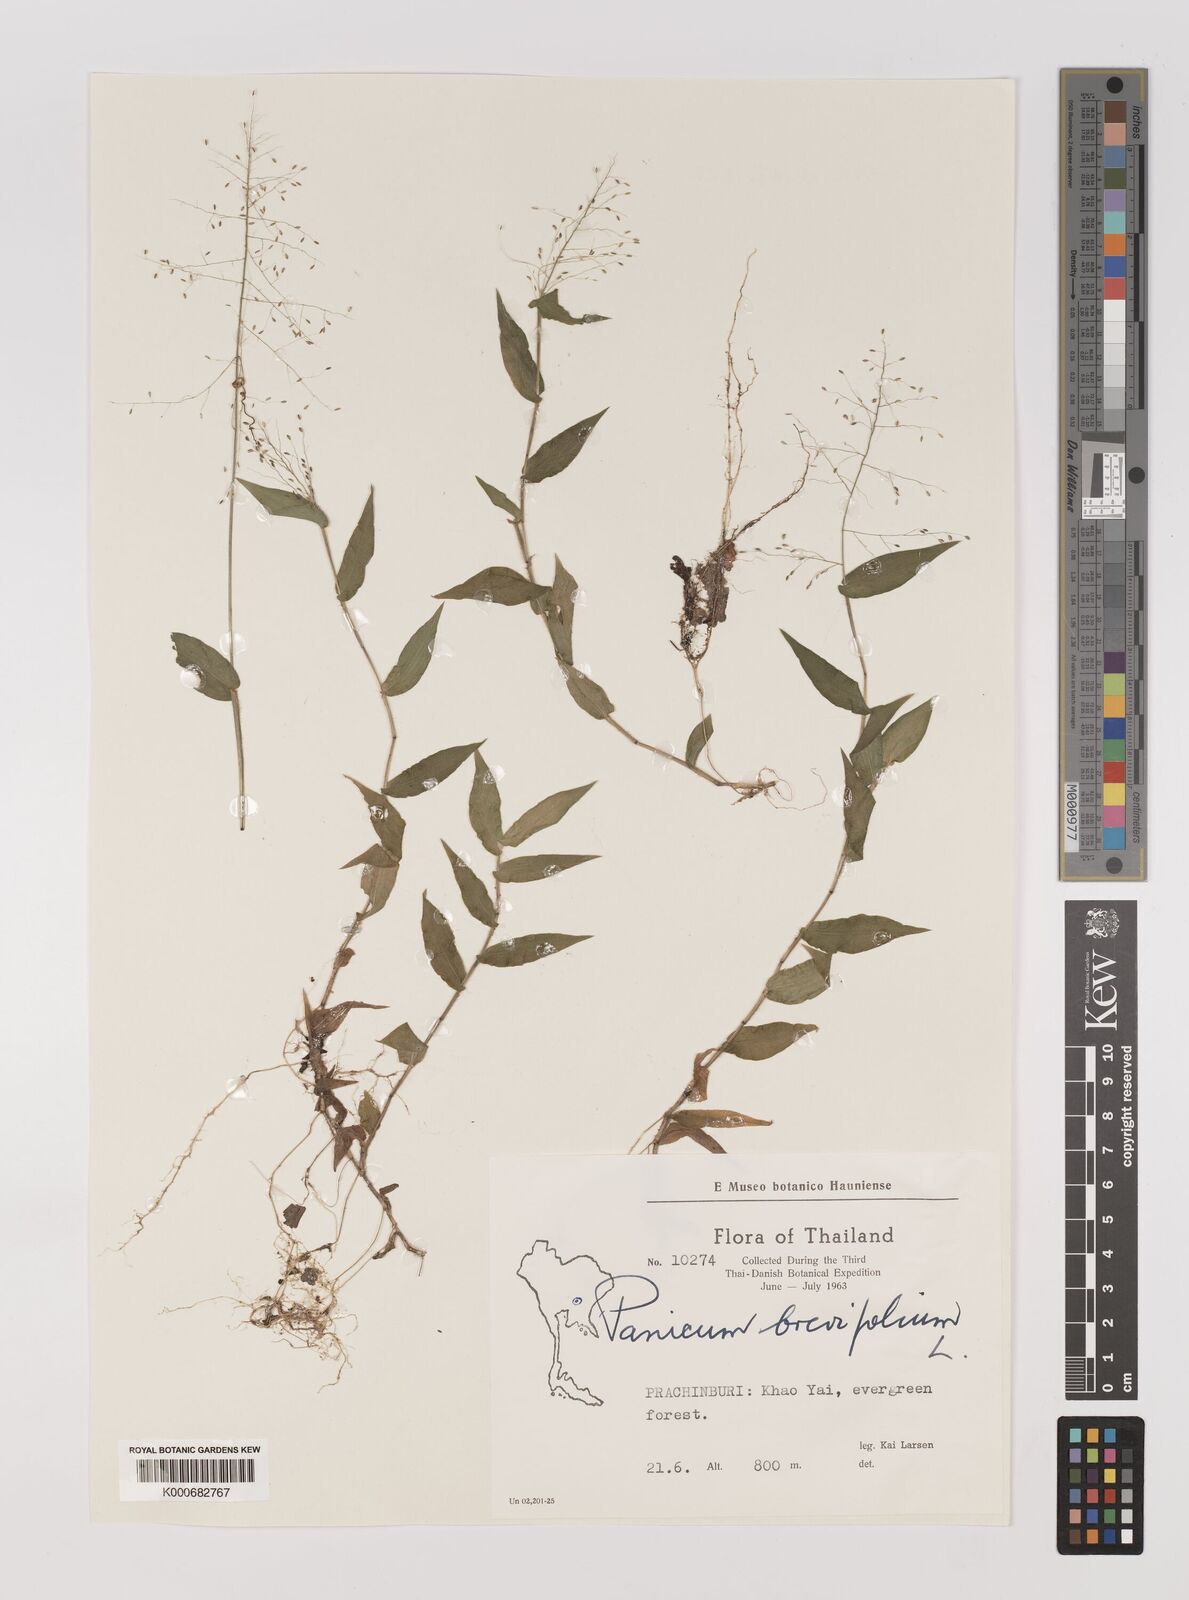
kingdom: Plantae
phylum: Tracheophyta
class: Liliopsida
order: Poales
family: Poaceae
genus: Panicum
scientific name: Panicum brevifolium
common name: Shortleaf panic grass
